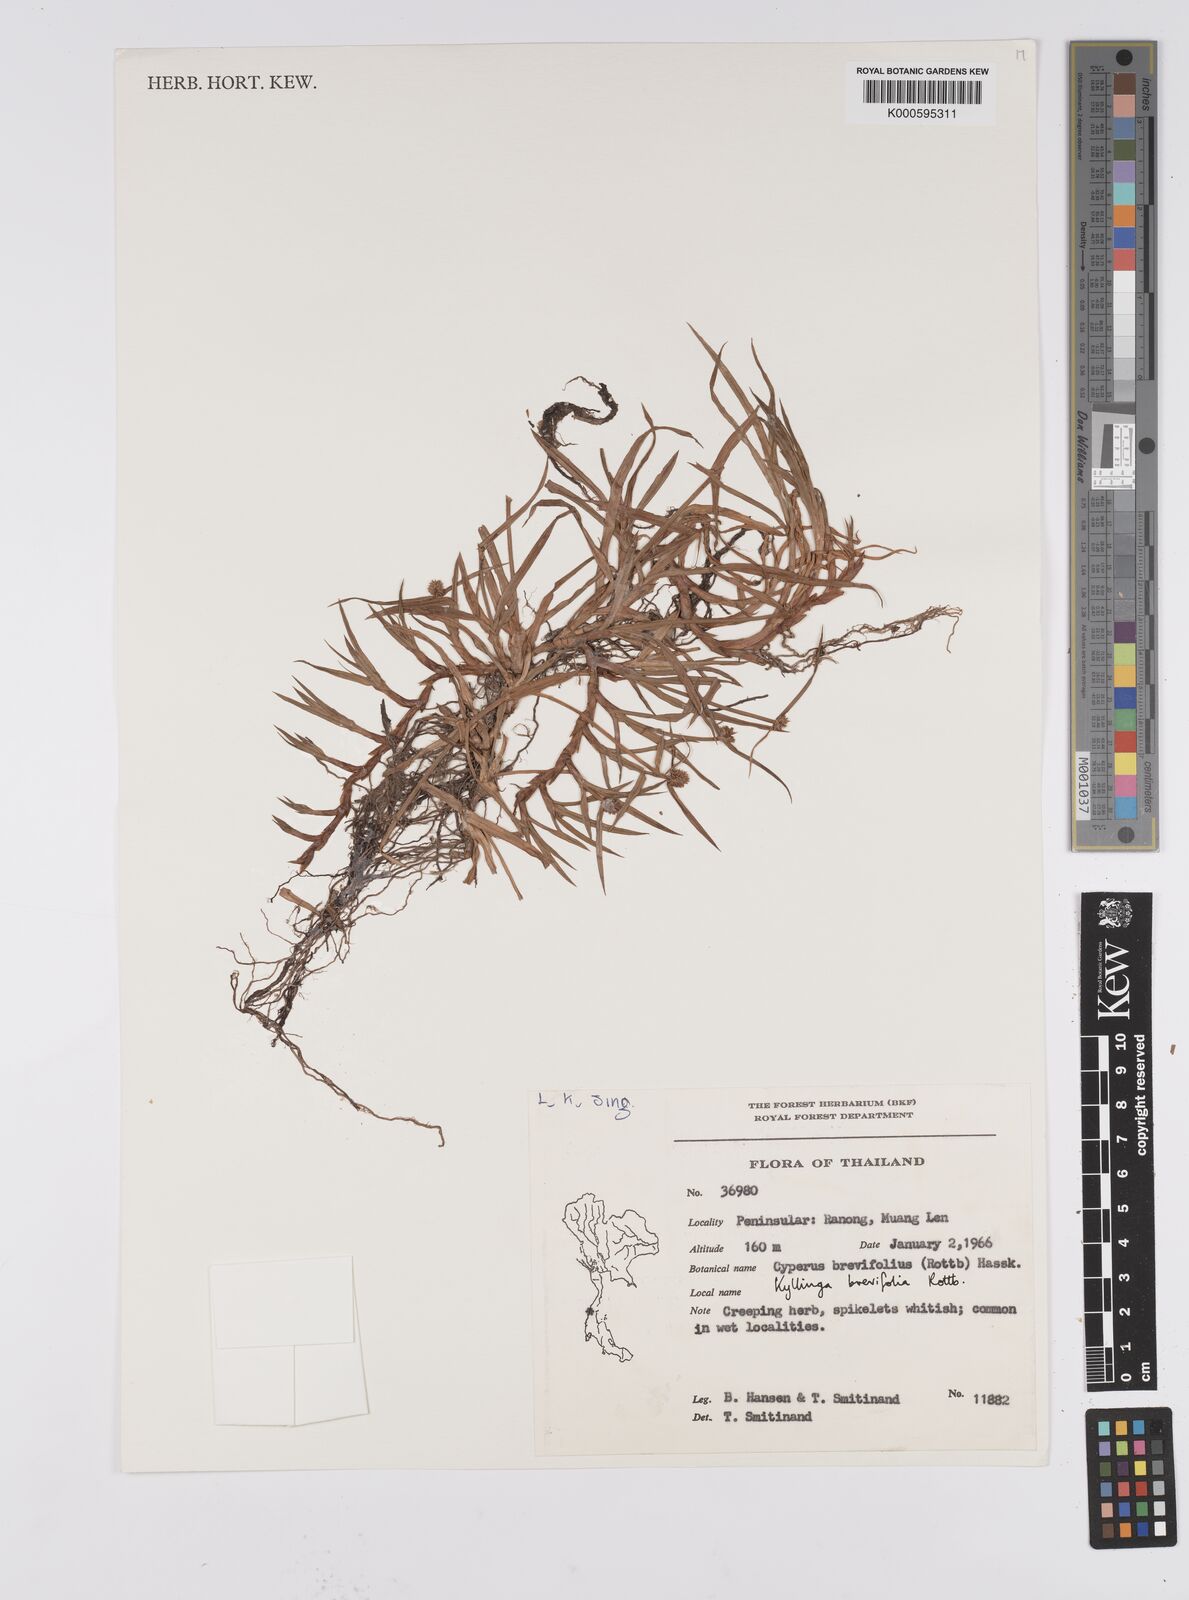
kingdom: Plantae
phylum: Tracheophyta
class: Liliopsida
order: Poales
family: Cyperaceae
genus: Cyperus
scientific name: Cyperus brevifolius
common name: Globe kyllinga
